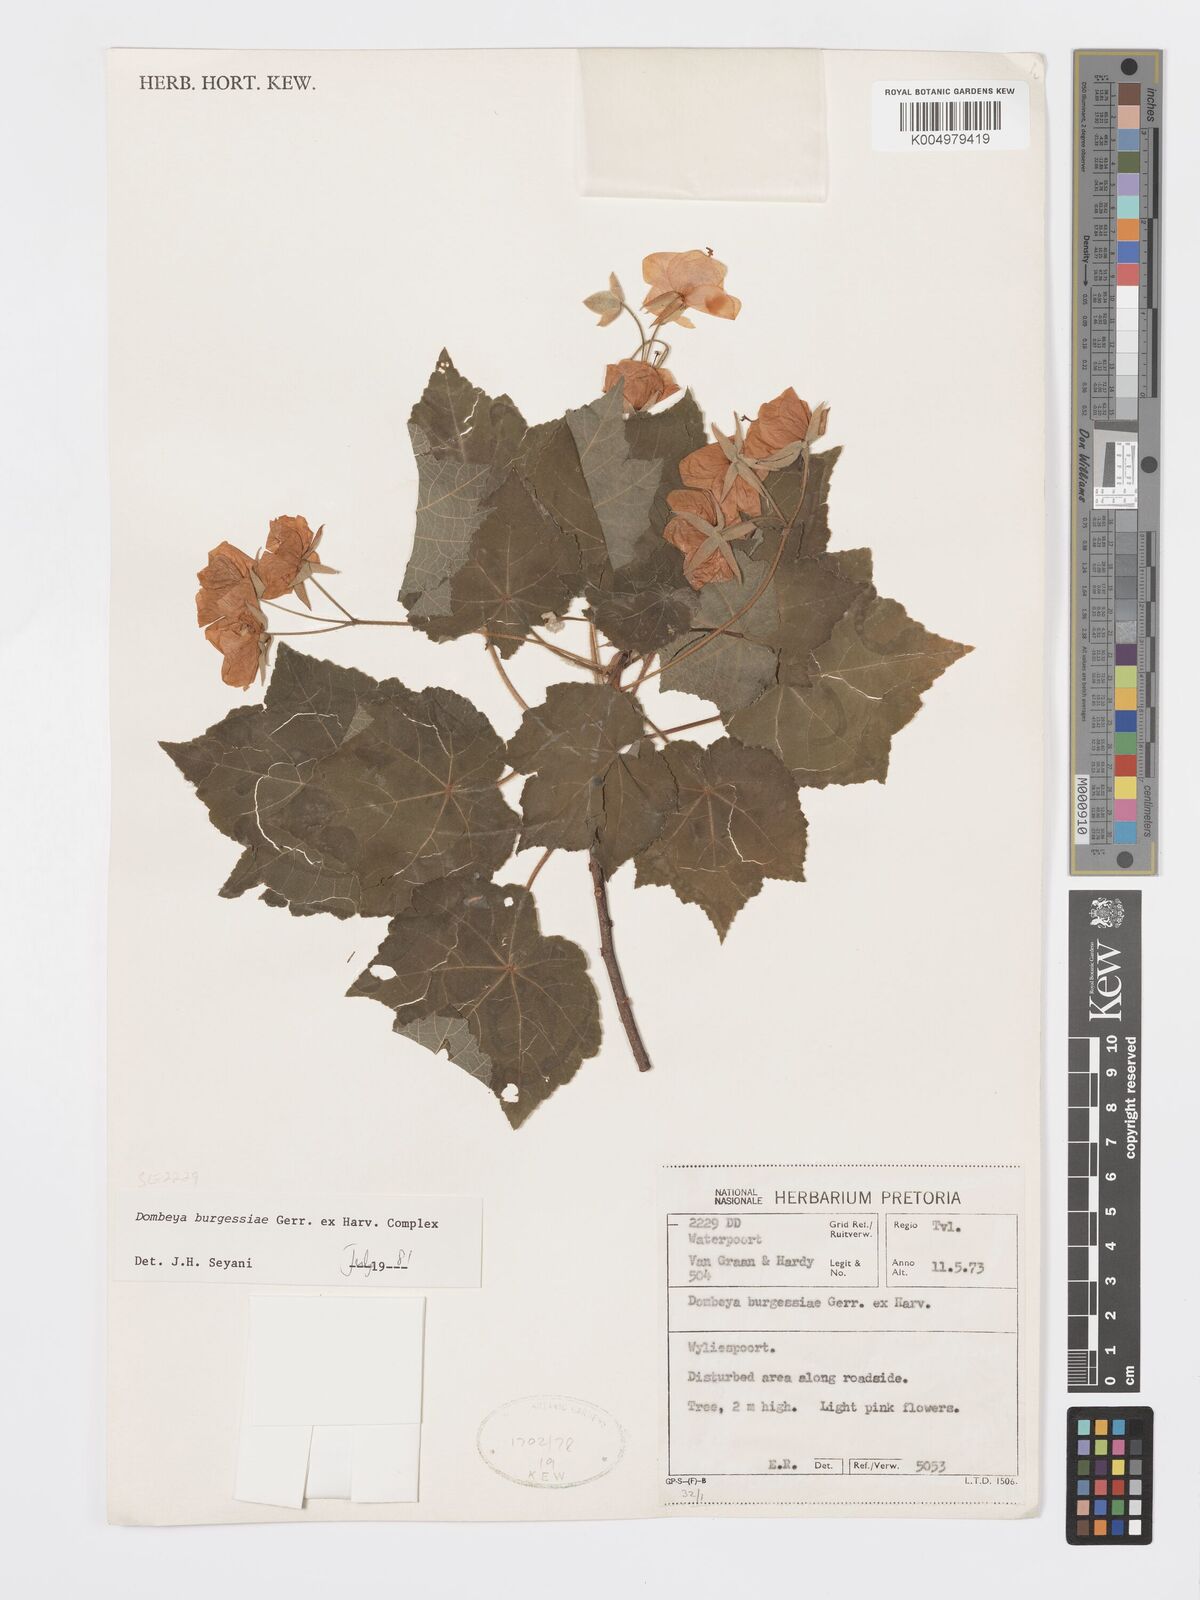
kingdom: Plantae
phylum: Tracheophyta
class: Magnoliopsida
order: Malvales
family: Malvaceae
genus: Dombeya
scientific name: Dombeya burgessiae
